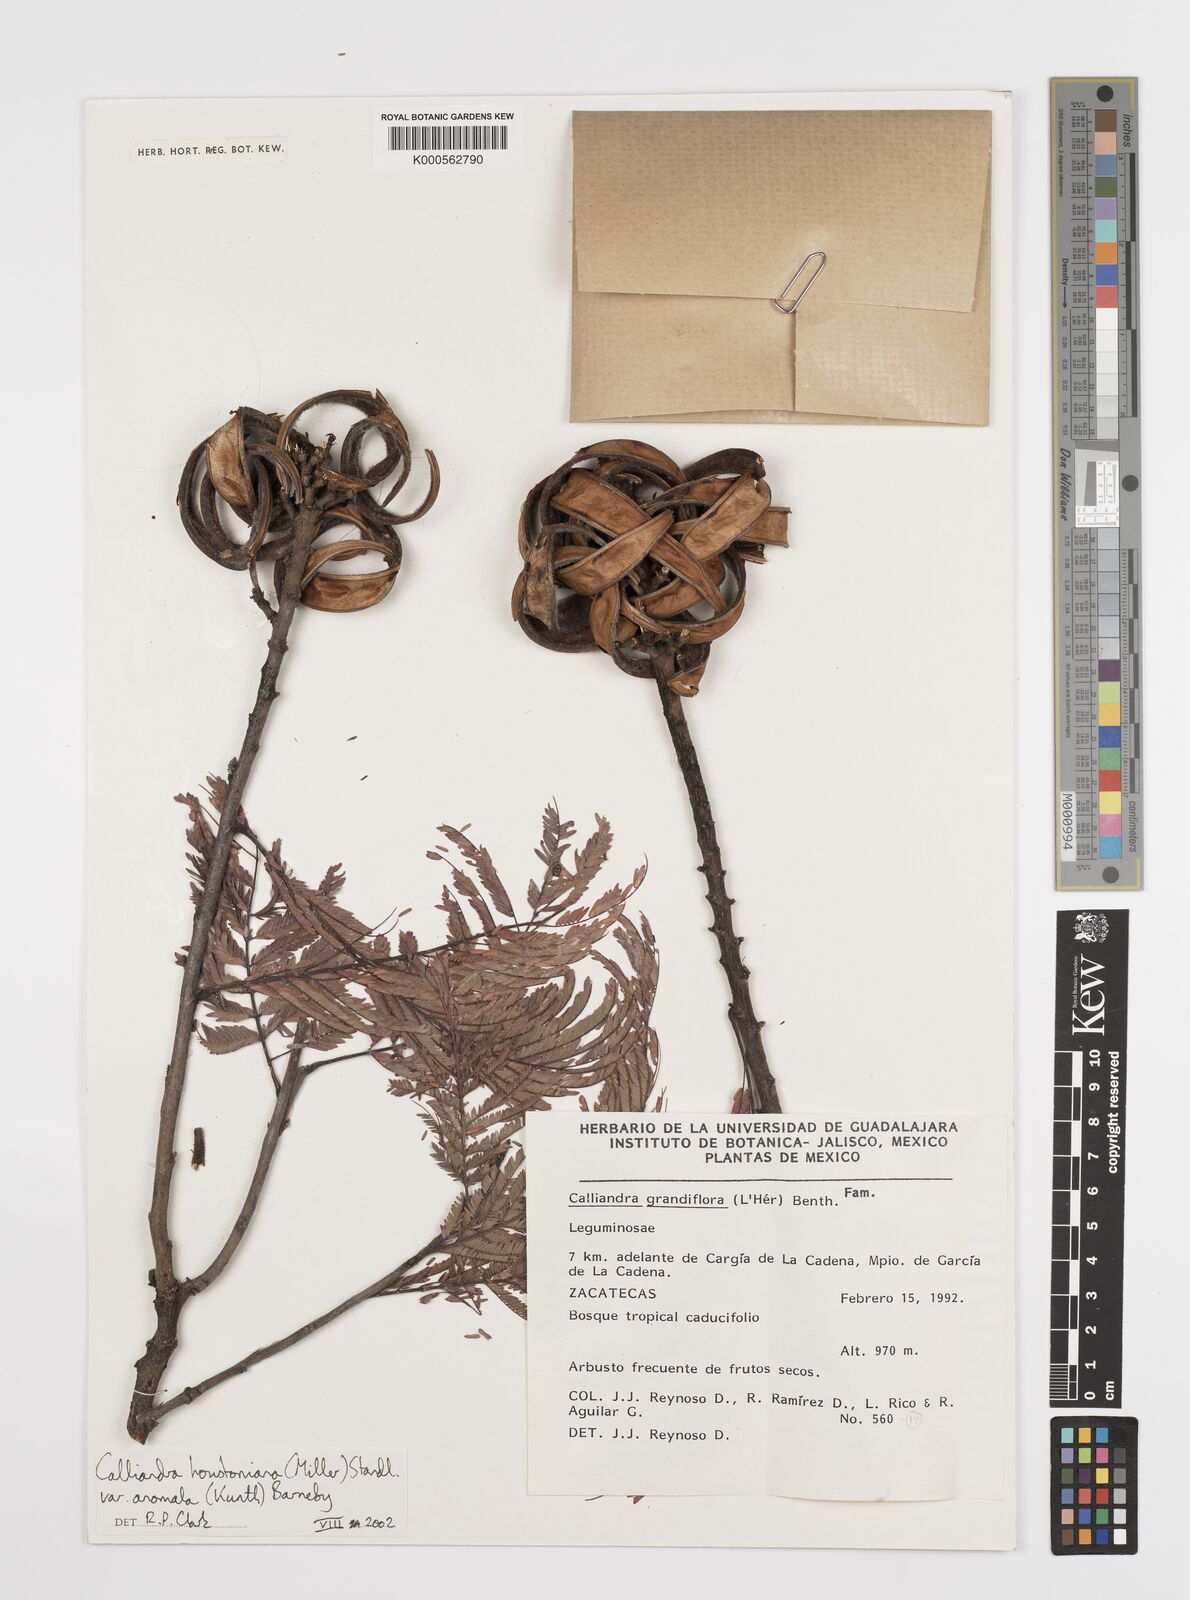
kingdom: Plantae
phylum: Tracheophyta
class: Magnoliopsida
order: Fabales
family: Fabaceae
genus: Calliandra
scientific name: Calliandra houstoniana
